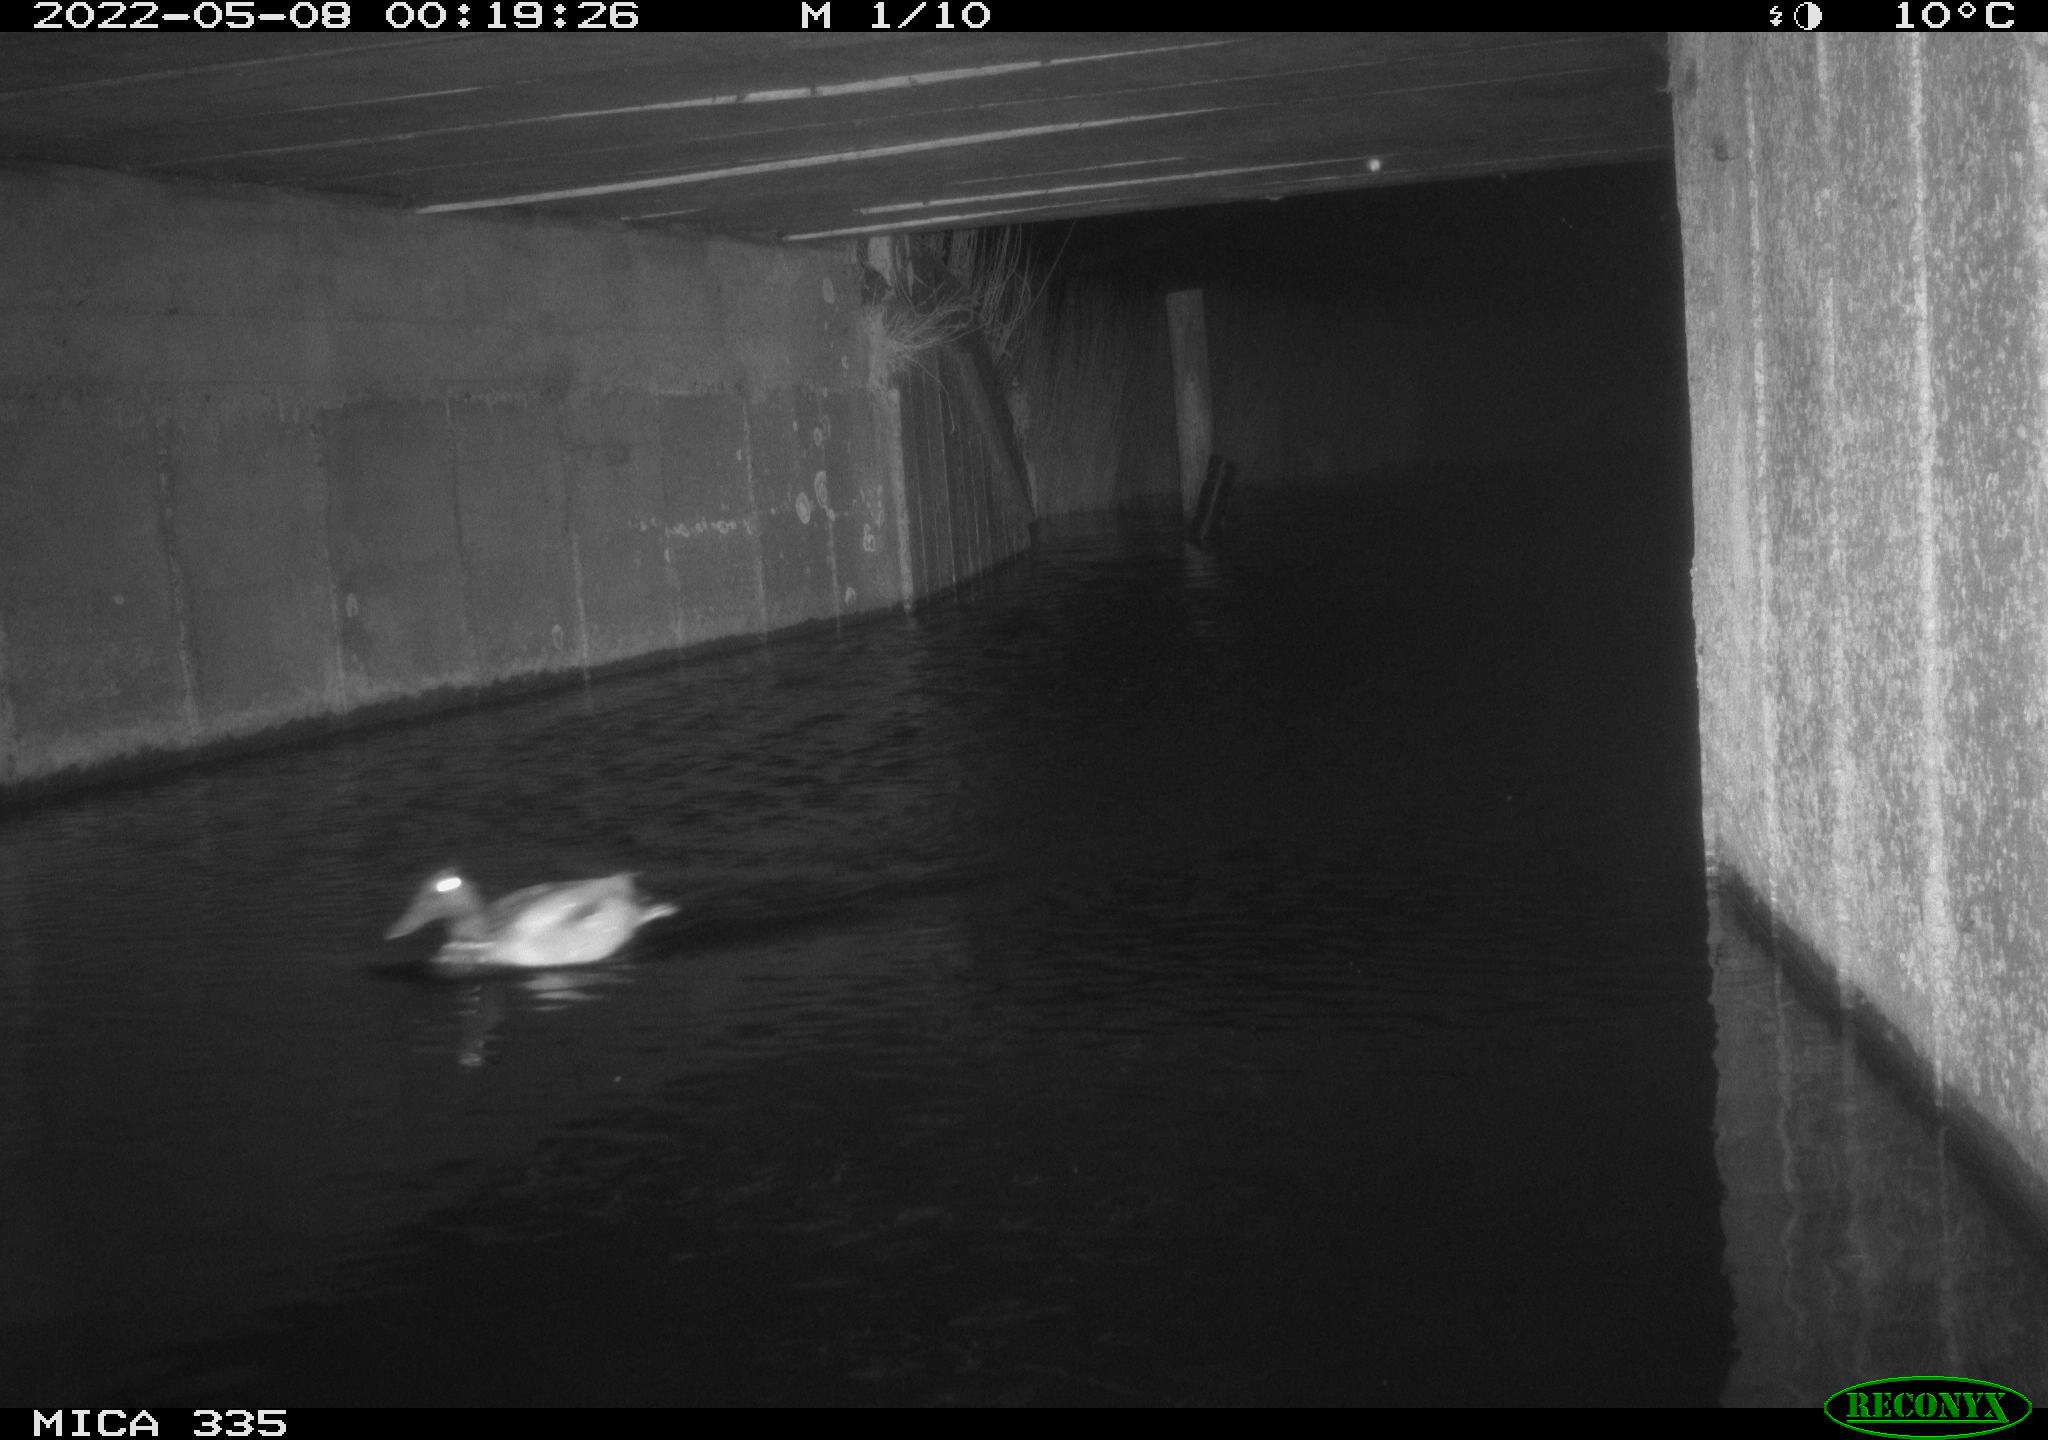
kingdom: Animalia
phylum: Chordata
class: Aves
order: Anseriformes
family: Anatidae
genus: Anas
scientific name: Anas platyrhynchos
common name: Mallard
